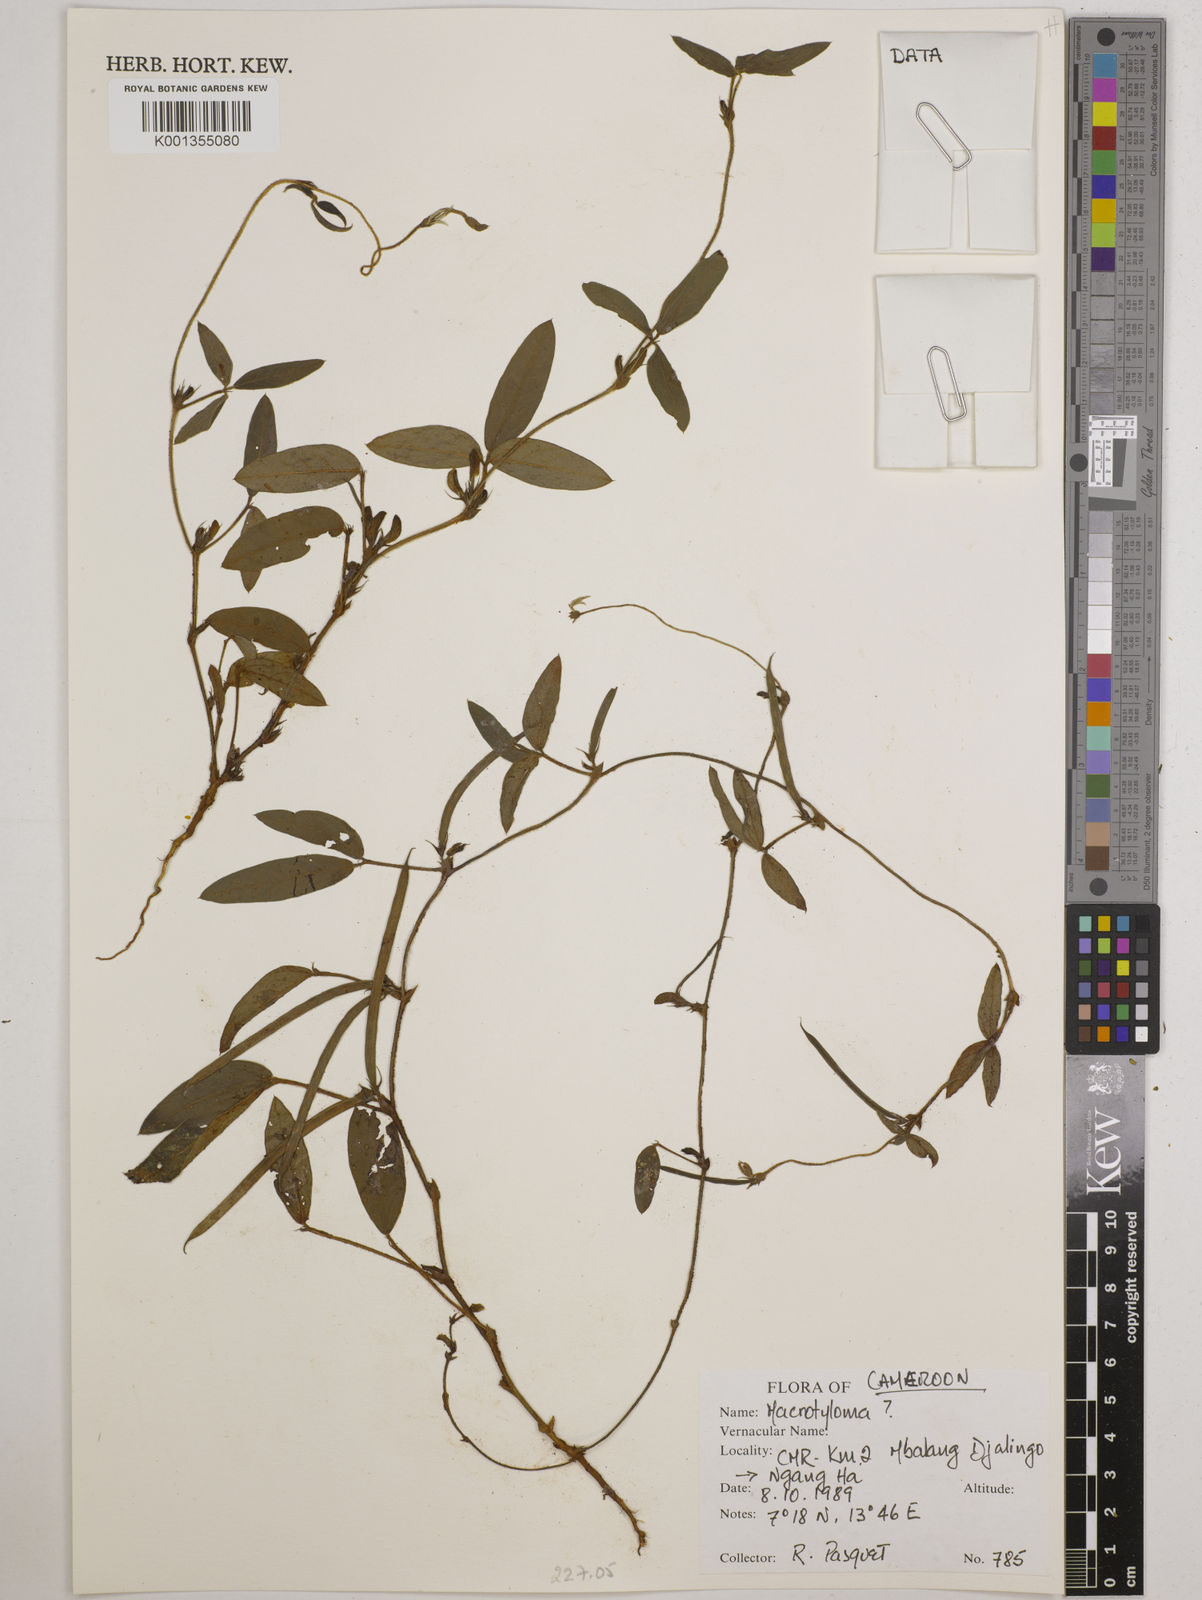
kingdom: Plantae
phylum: Tracheophyta
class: Magnoliopsida
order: Fabales
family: Fabaceae
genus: Macrotyloma
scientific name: Macrotyloma
